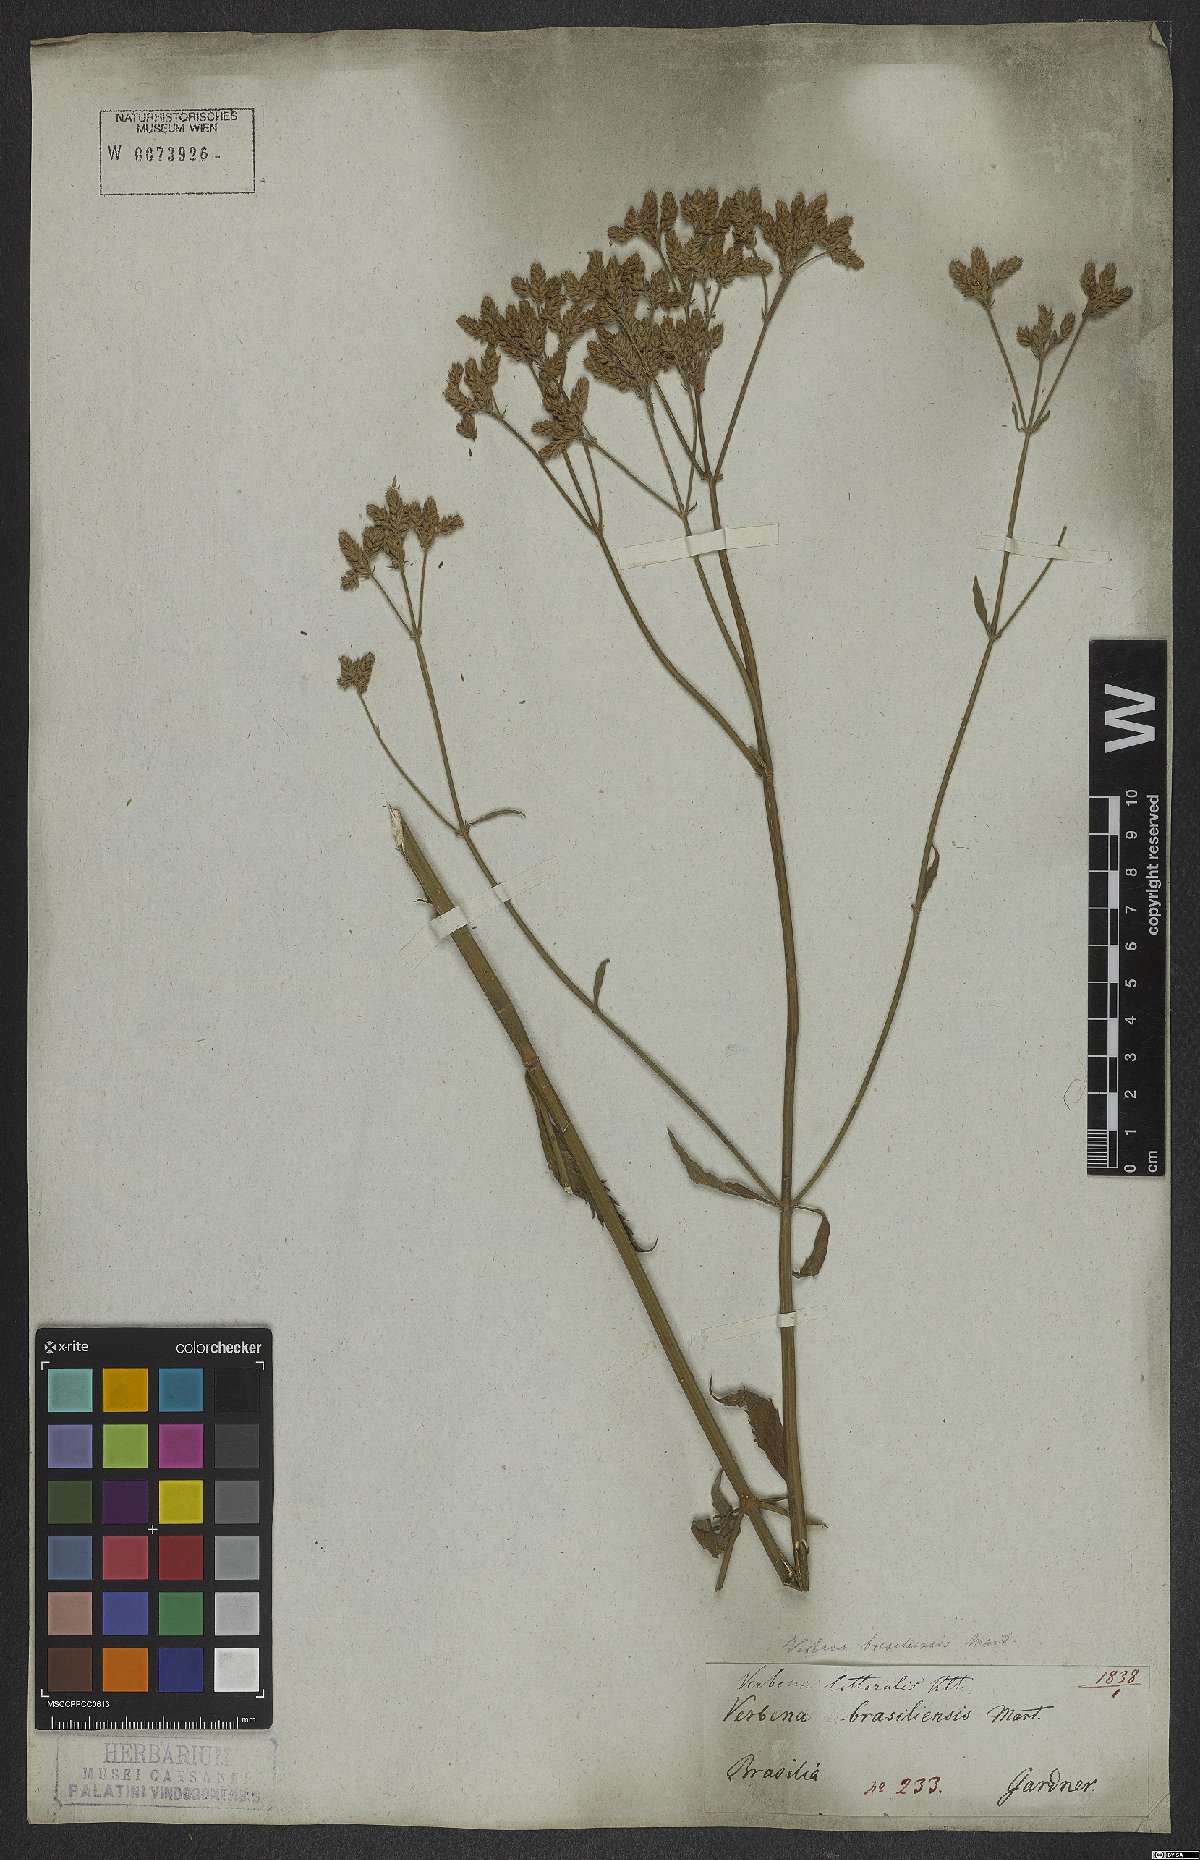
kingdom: Plantae
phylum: Tracheophyta
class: Magnoliopsida
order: Lamiales
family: Verbenaceae
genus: Verbena
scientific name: Verbena litoralis
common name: Seashore vervain
